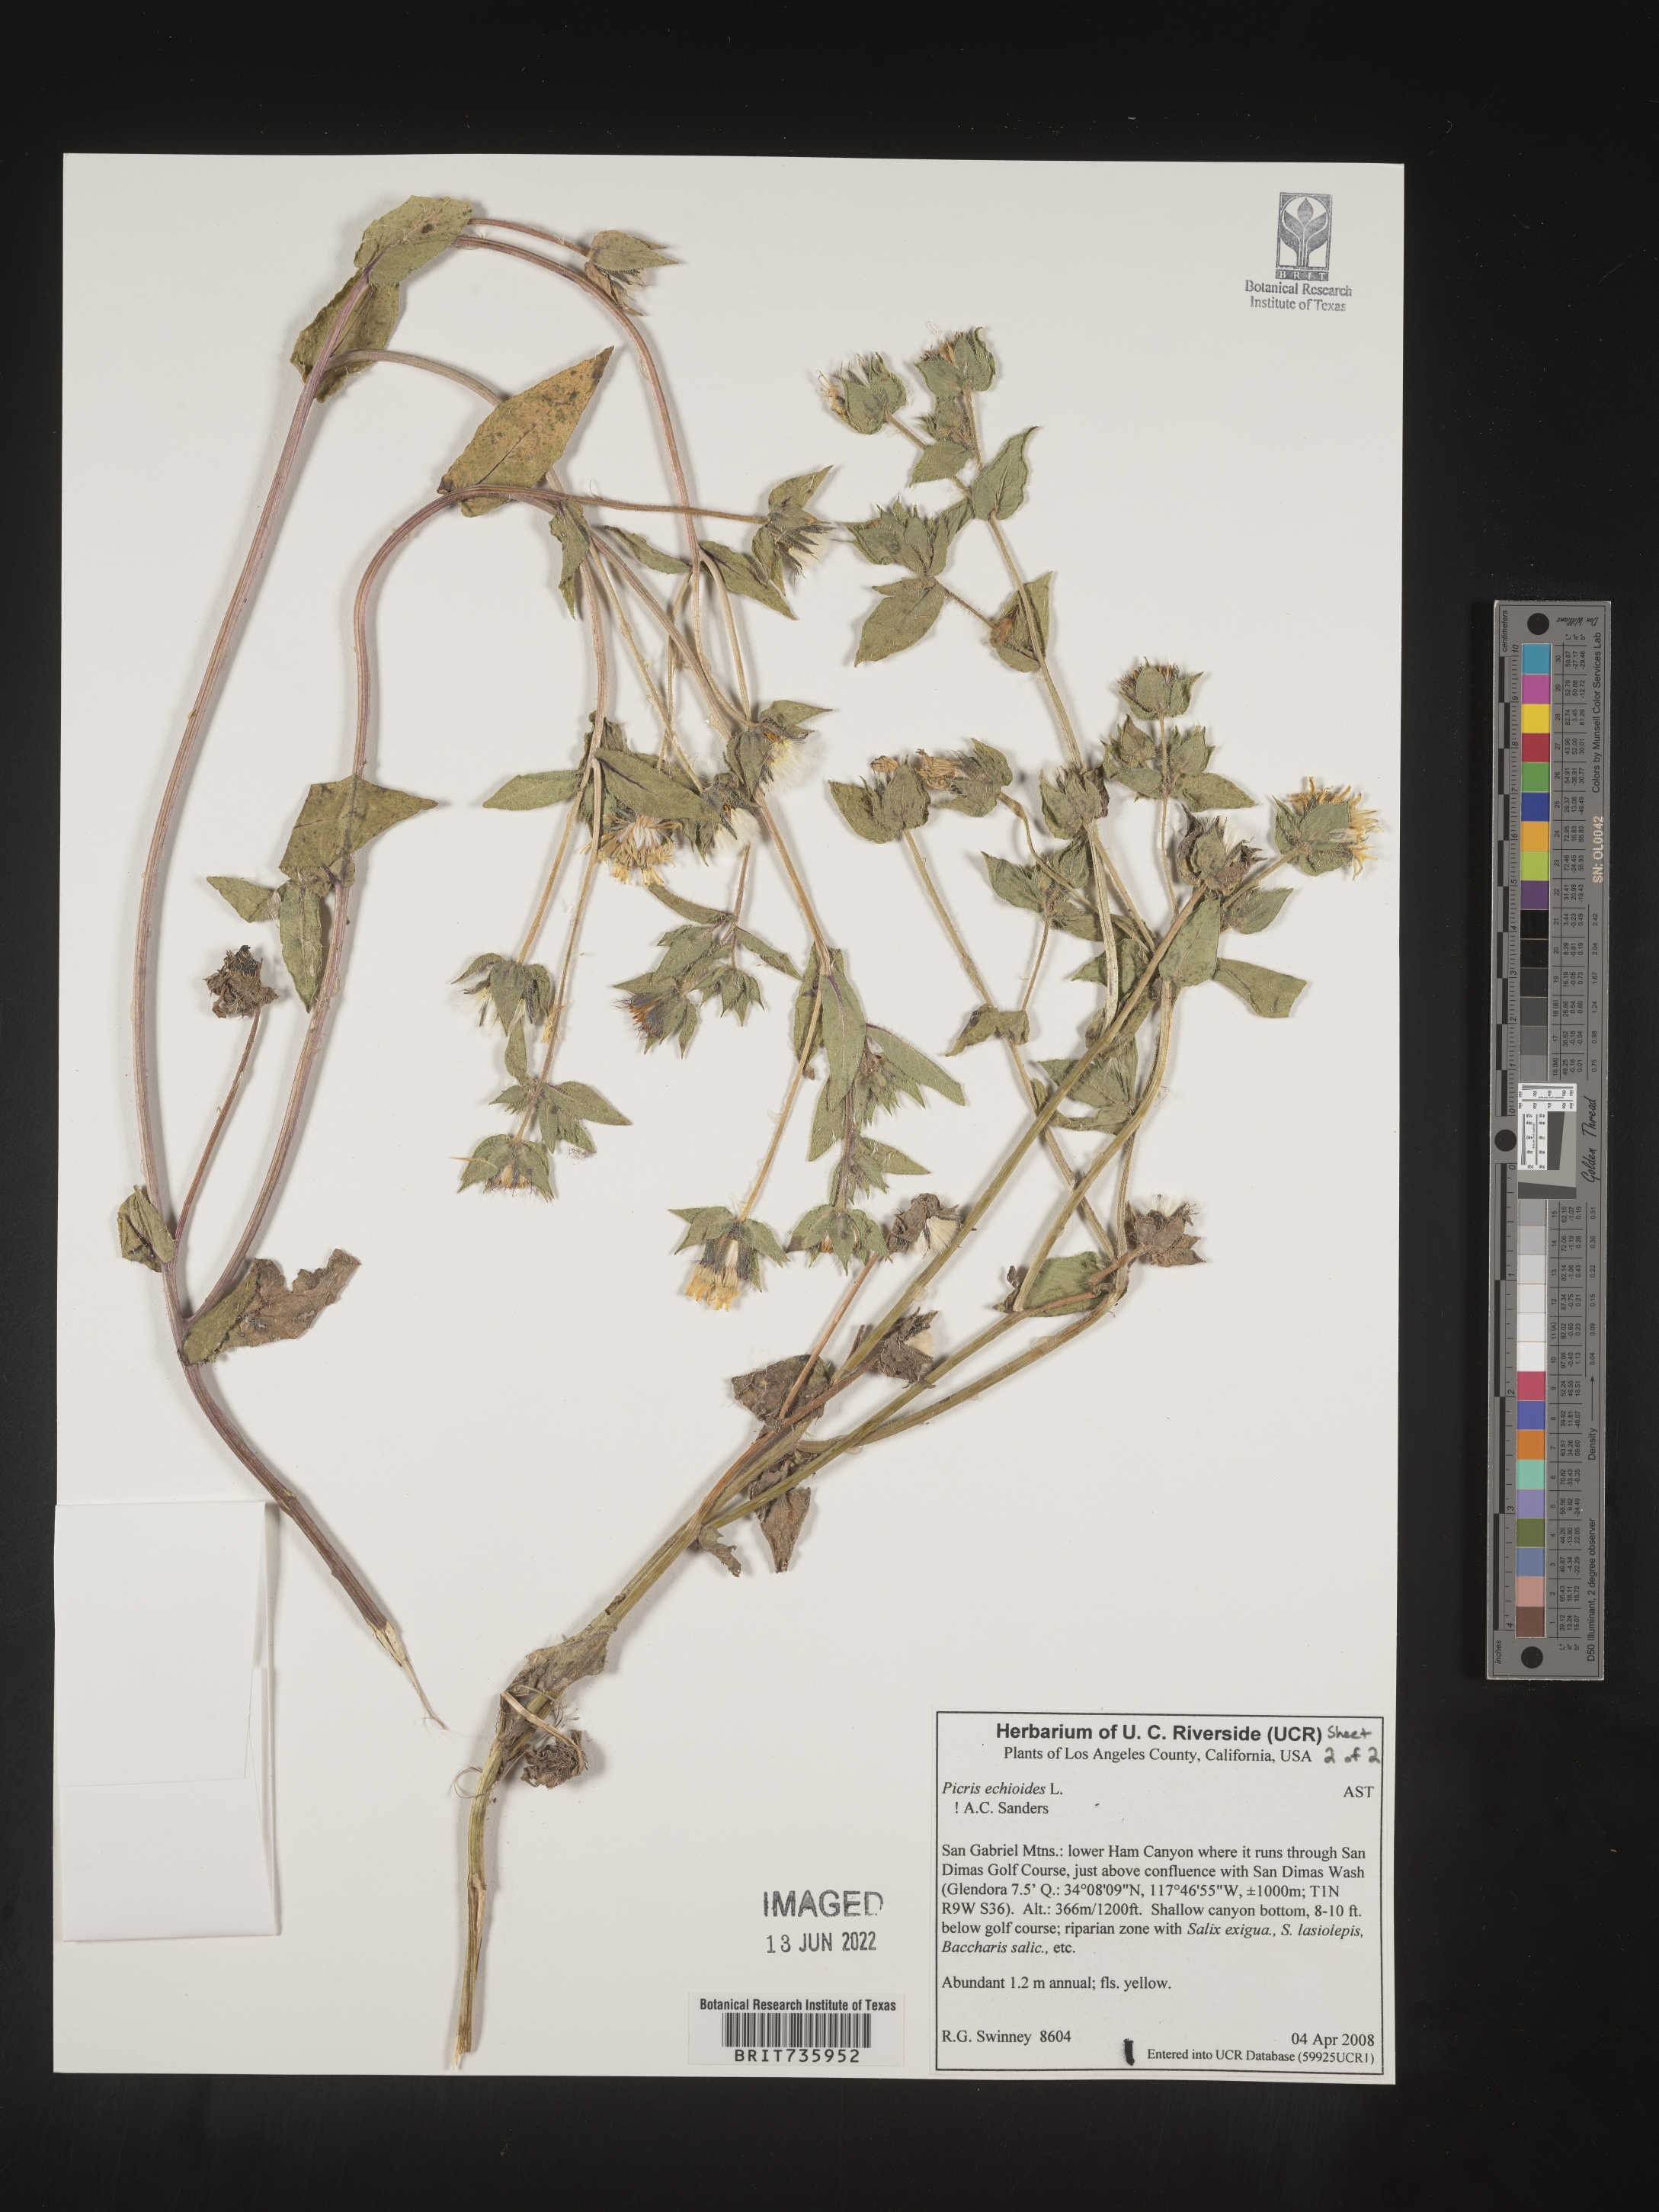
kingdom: Plantae
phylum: Tracheophyta
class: Magnoliopsida
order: Asterales
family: Asteraceae
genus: Picris
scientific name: Picris
